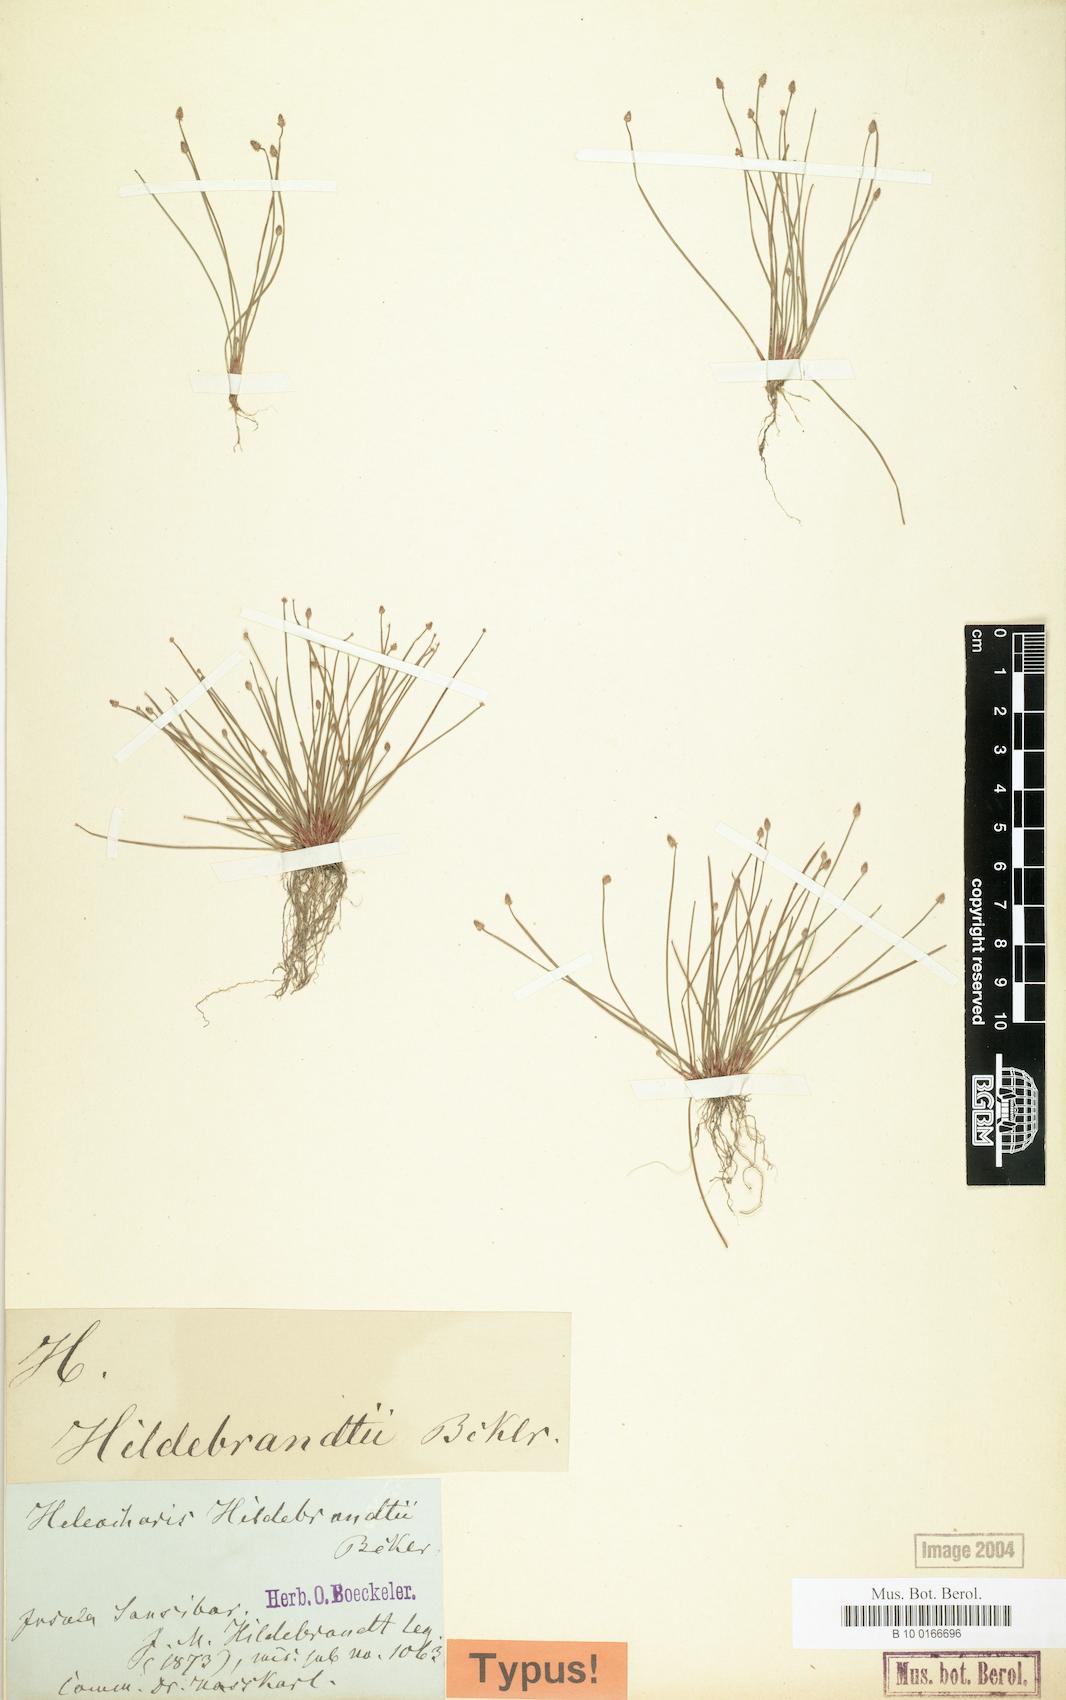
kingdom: Plantae
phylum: Tracheophyta
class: Liliopsida
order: Poales
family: Cyperaceae
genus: Eleocharis
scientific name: Eleocharis nigrescens
